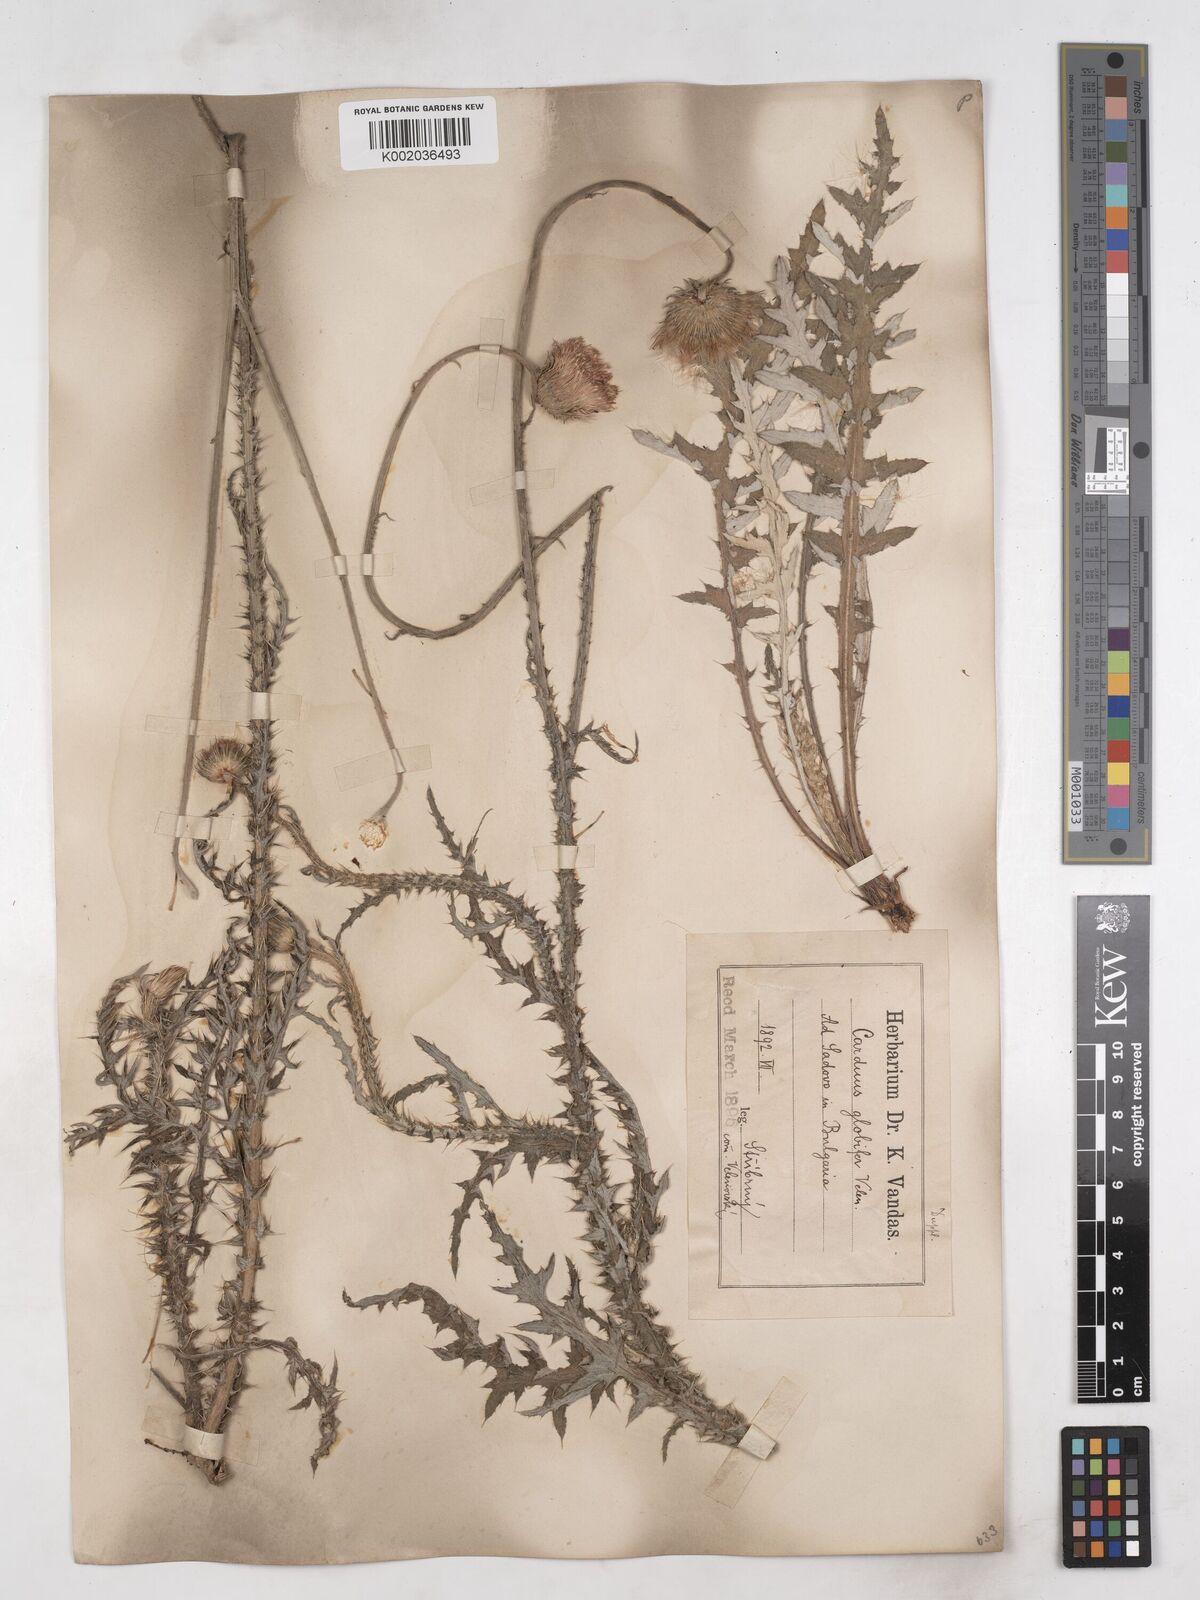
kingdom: Plantae
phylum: Tracheophyta
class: Magnoliopsida
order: Asterales
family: Asteraceae
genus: Carduus
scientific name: Carduus candicans
